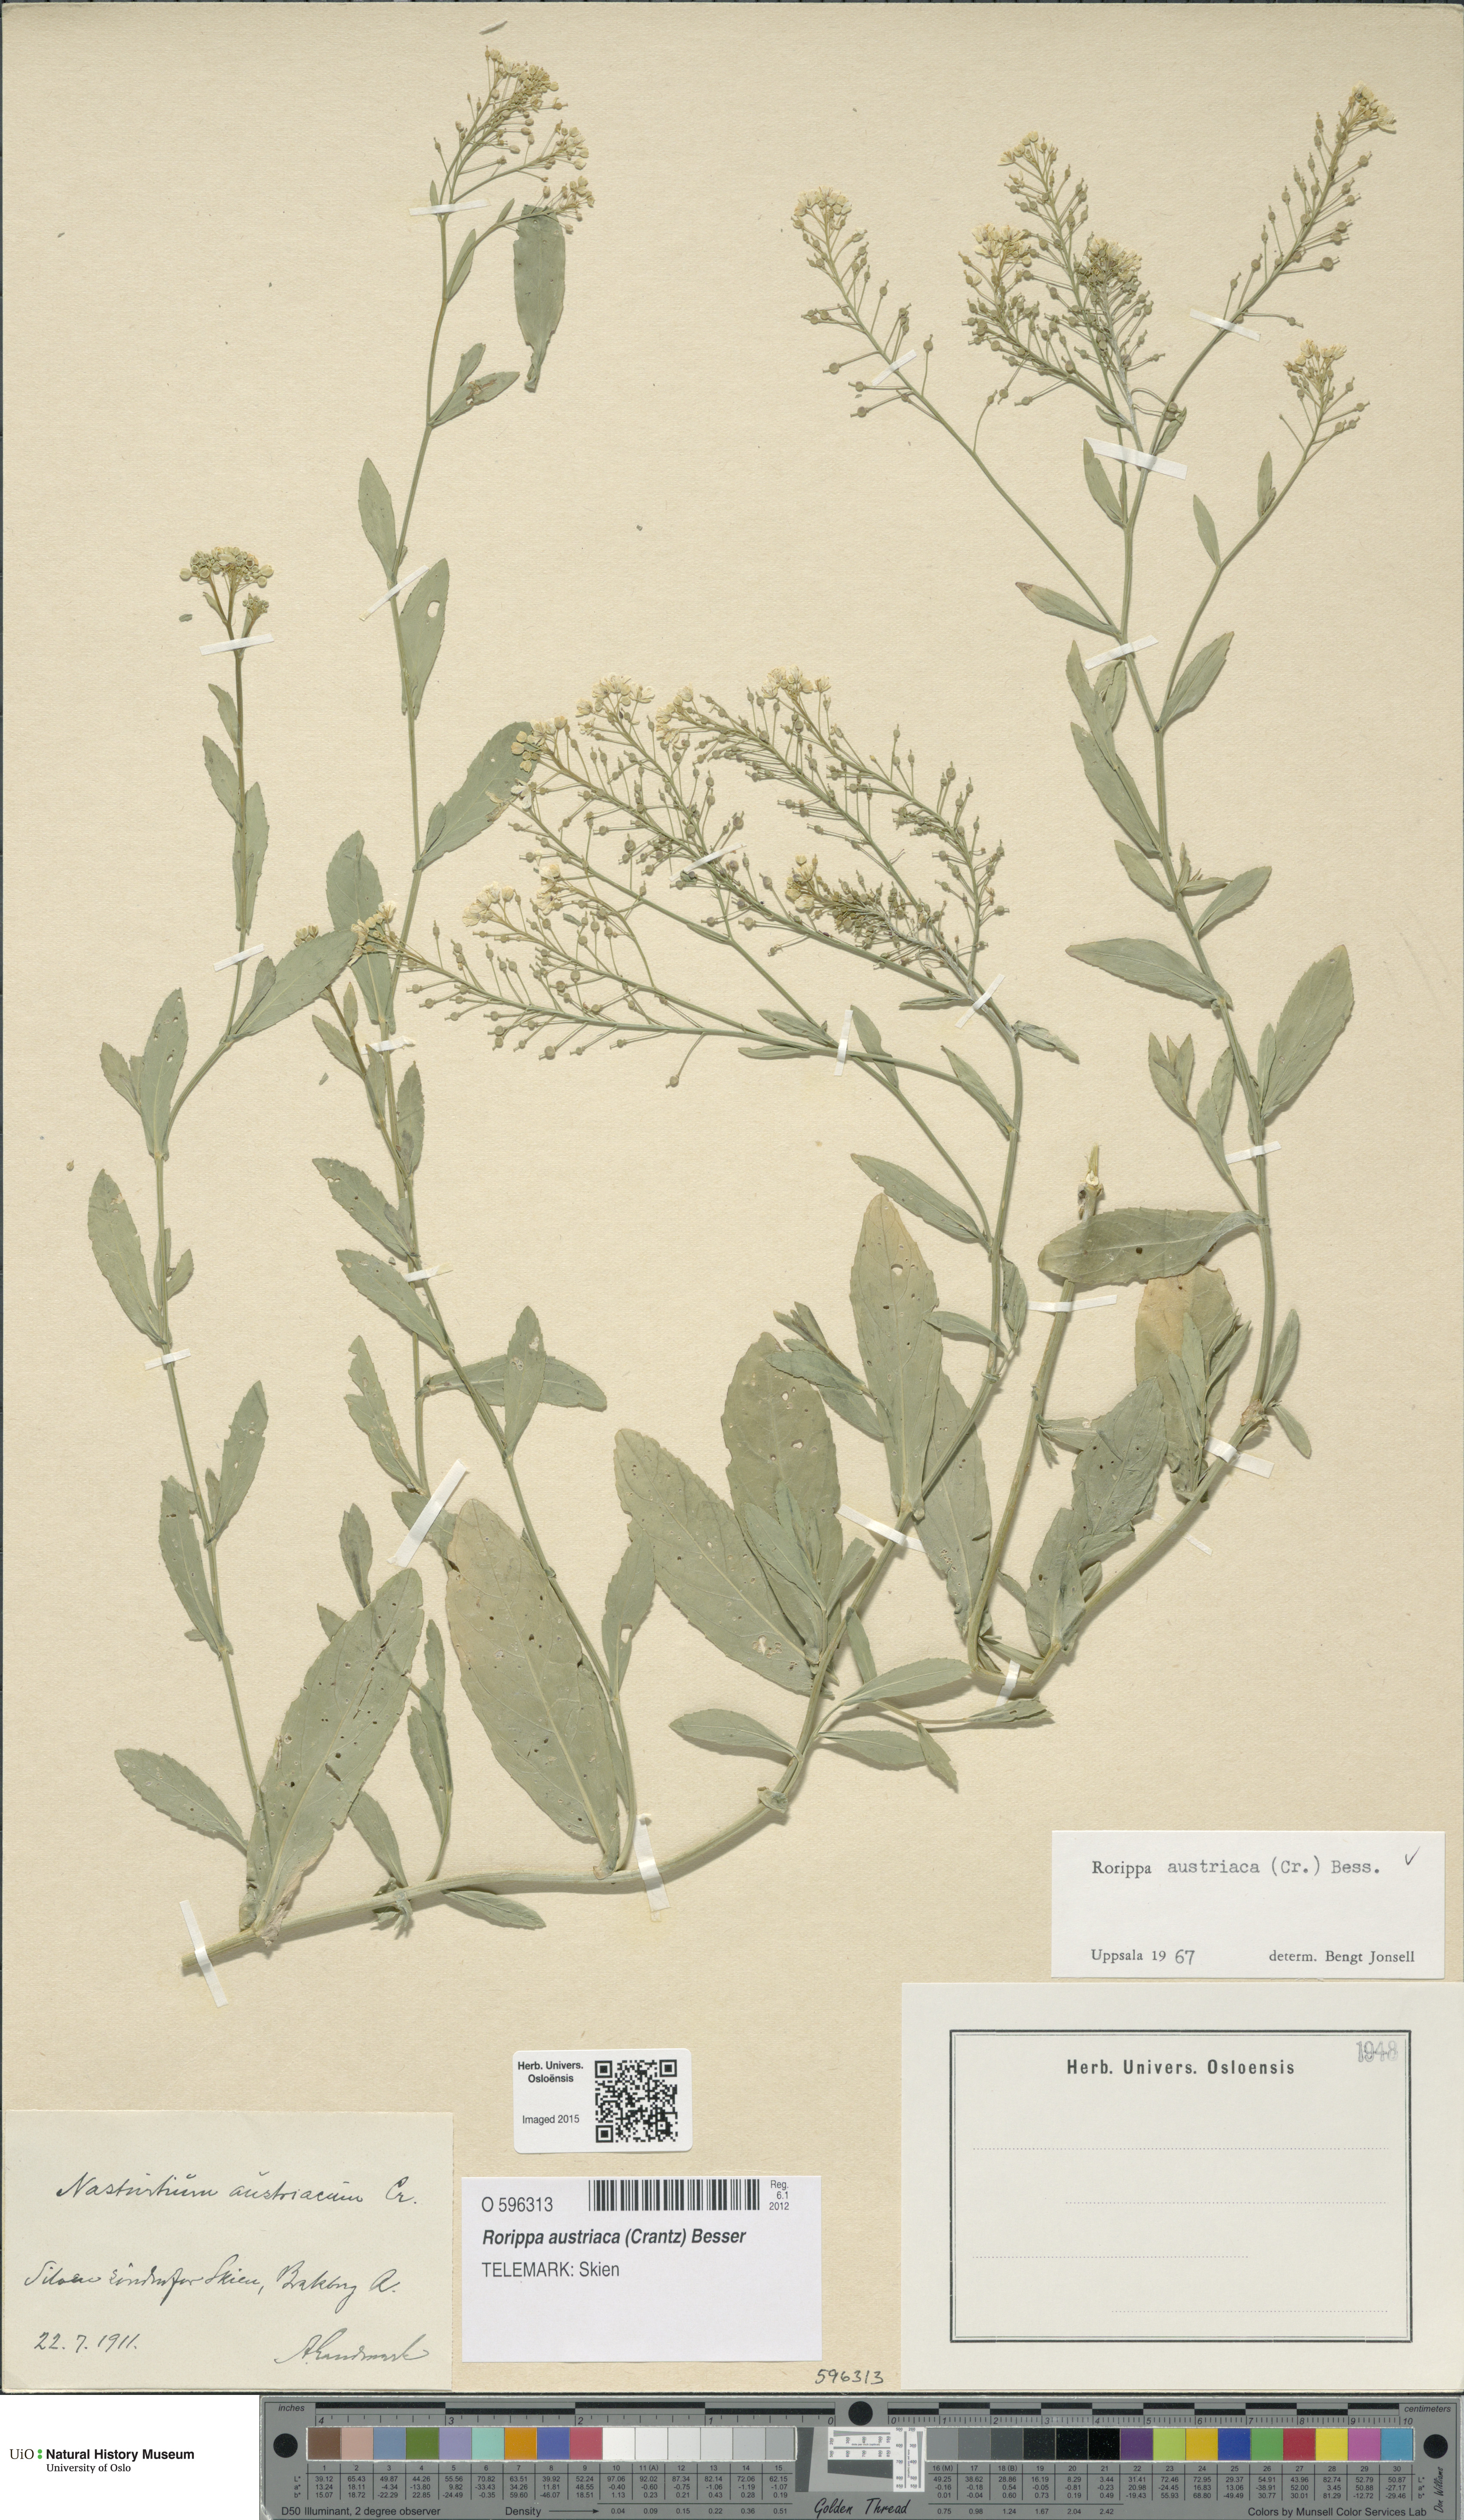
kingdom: Plantae
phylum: Tracheophyta
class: Magnoliopsida
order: Brassicales
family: Brassicaceae
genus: Rorippa
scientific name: Rorippa austriaca
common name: Austrian yellow-cress
